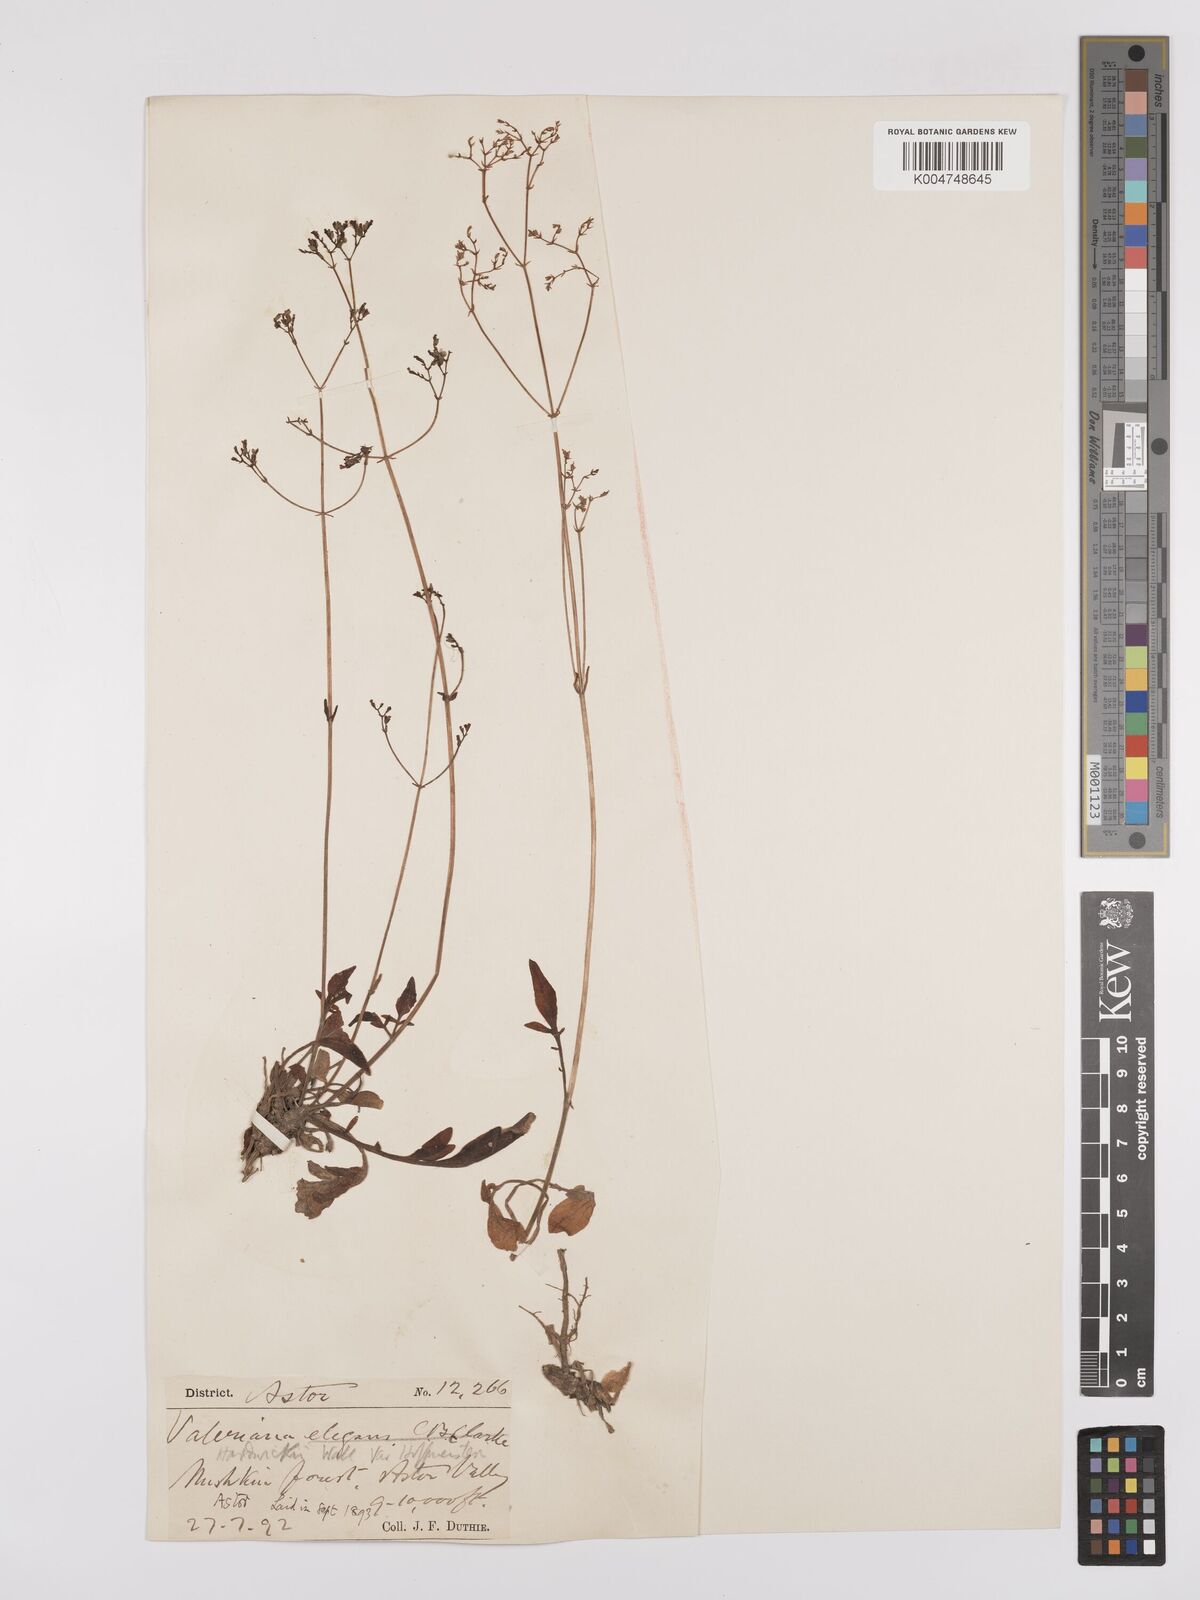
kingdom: Plantae
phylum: Tracheophyta
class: Magnoliopsida
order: Dipsacales
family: Caprifoliaceae
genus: Valeriana
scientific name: Valeriana hardwickei
